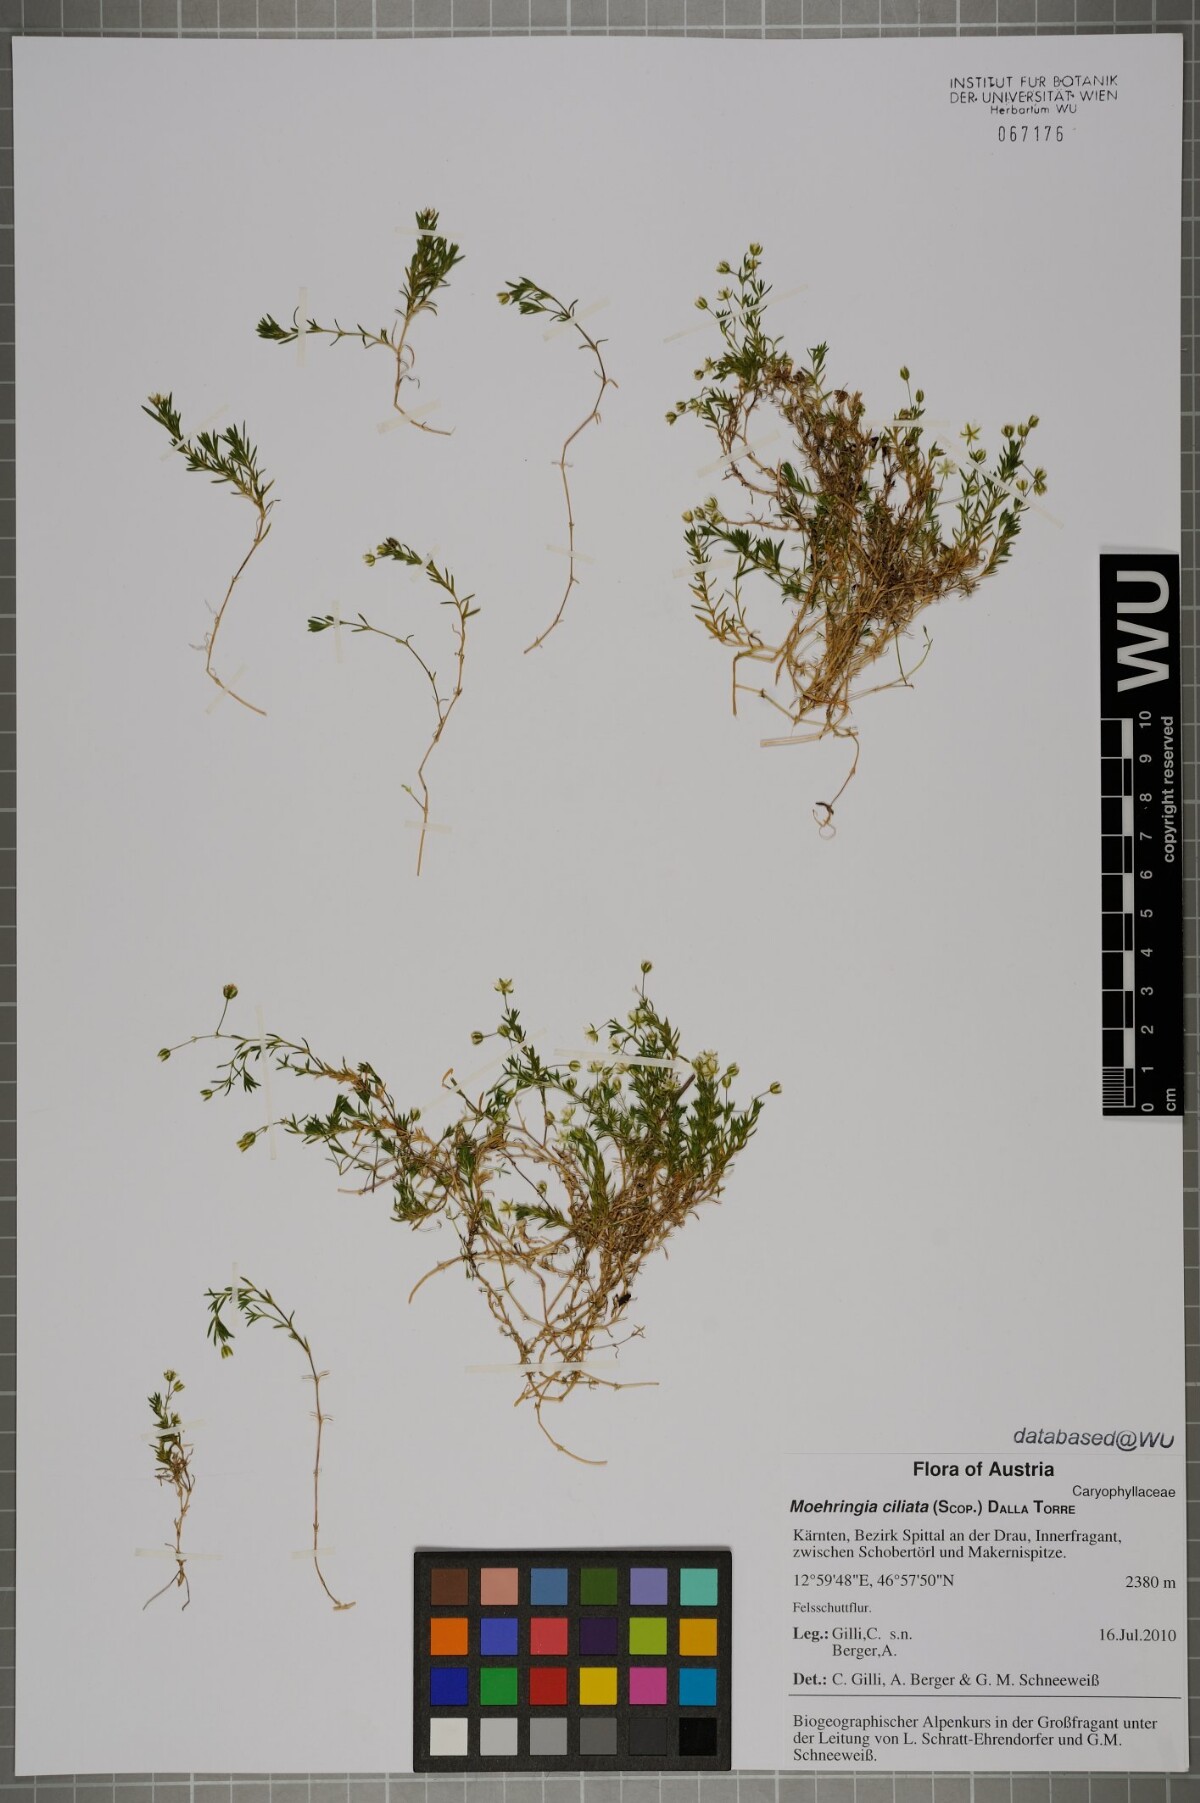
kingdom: Plantae
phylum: Tracheophyta
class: Magnoliopsida
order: Caryophyllales
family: Caryophyllaceae
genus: Moehringia
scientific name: Moehringia ciliata
